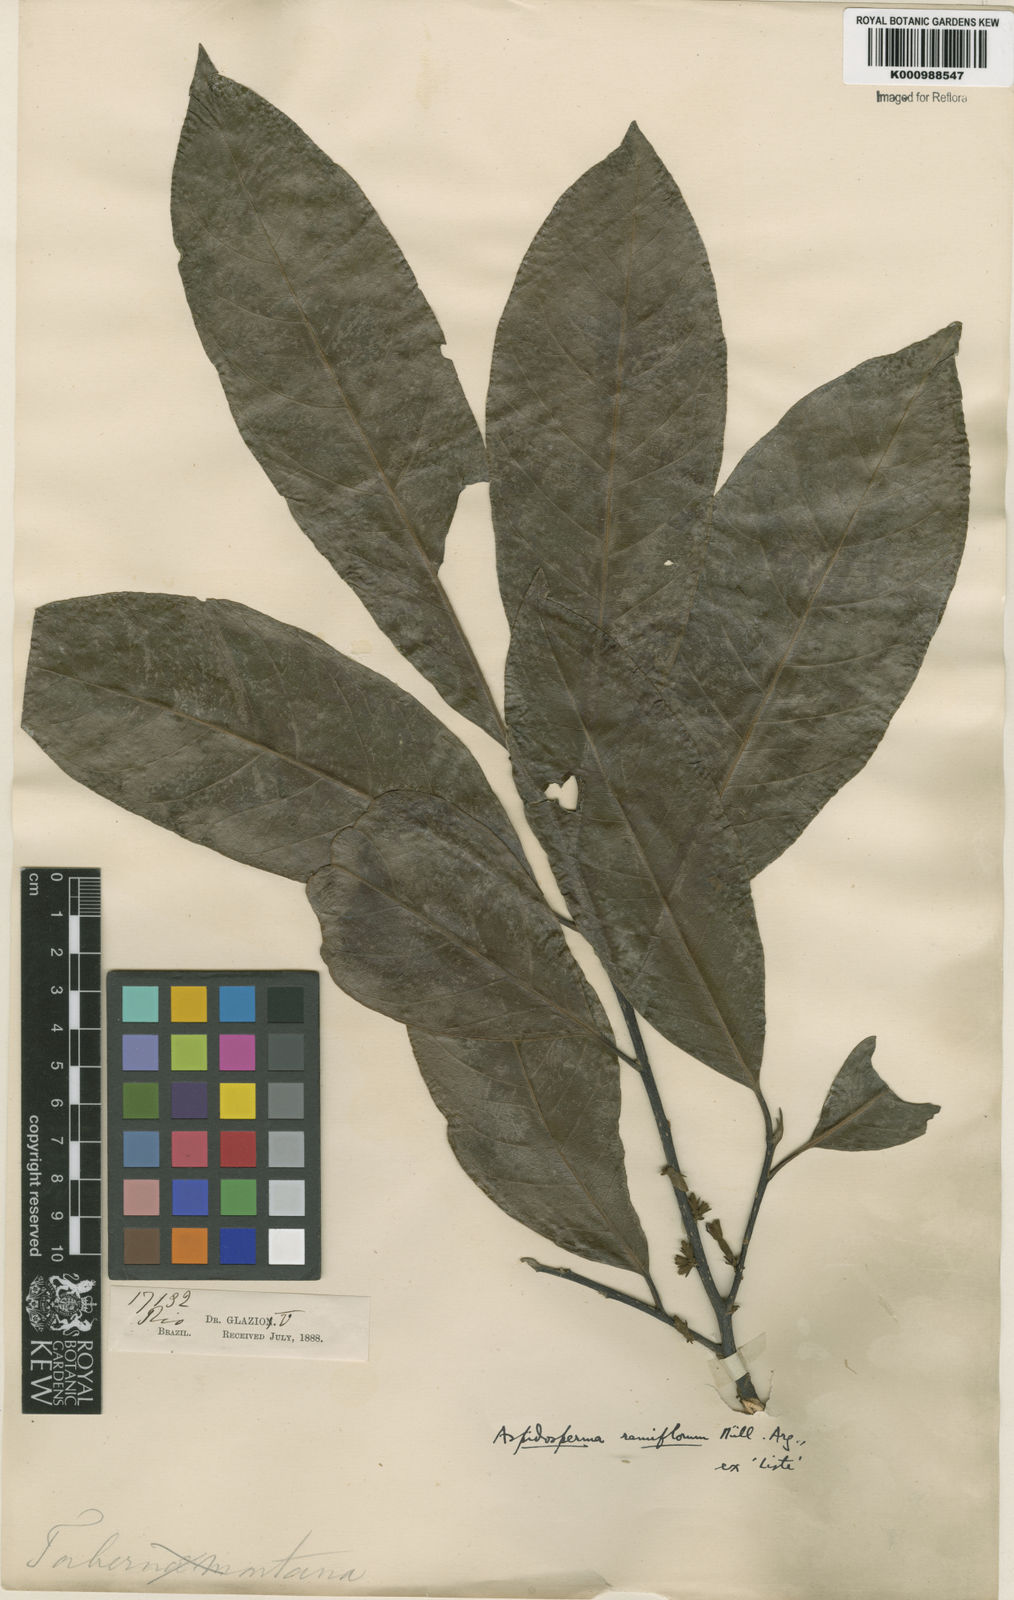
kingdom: Plantae
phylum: Tracheophyta
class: Magnoliopsida
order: Gentianales
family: Apocynaceae
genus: Aspidosperma
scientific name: Aspidosperma
